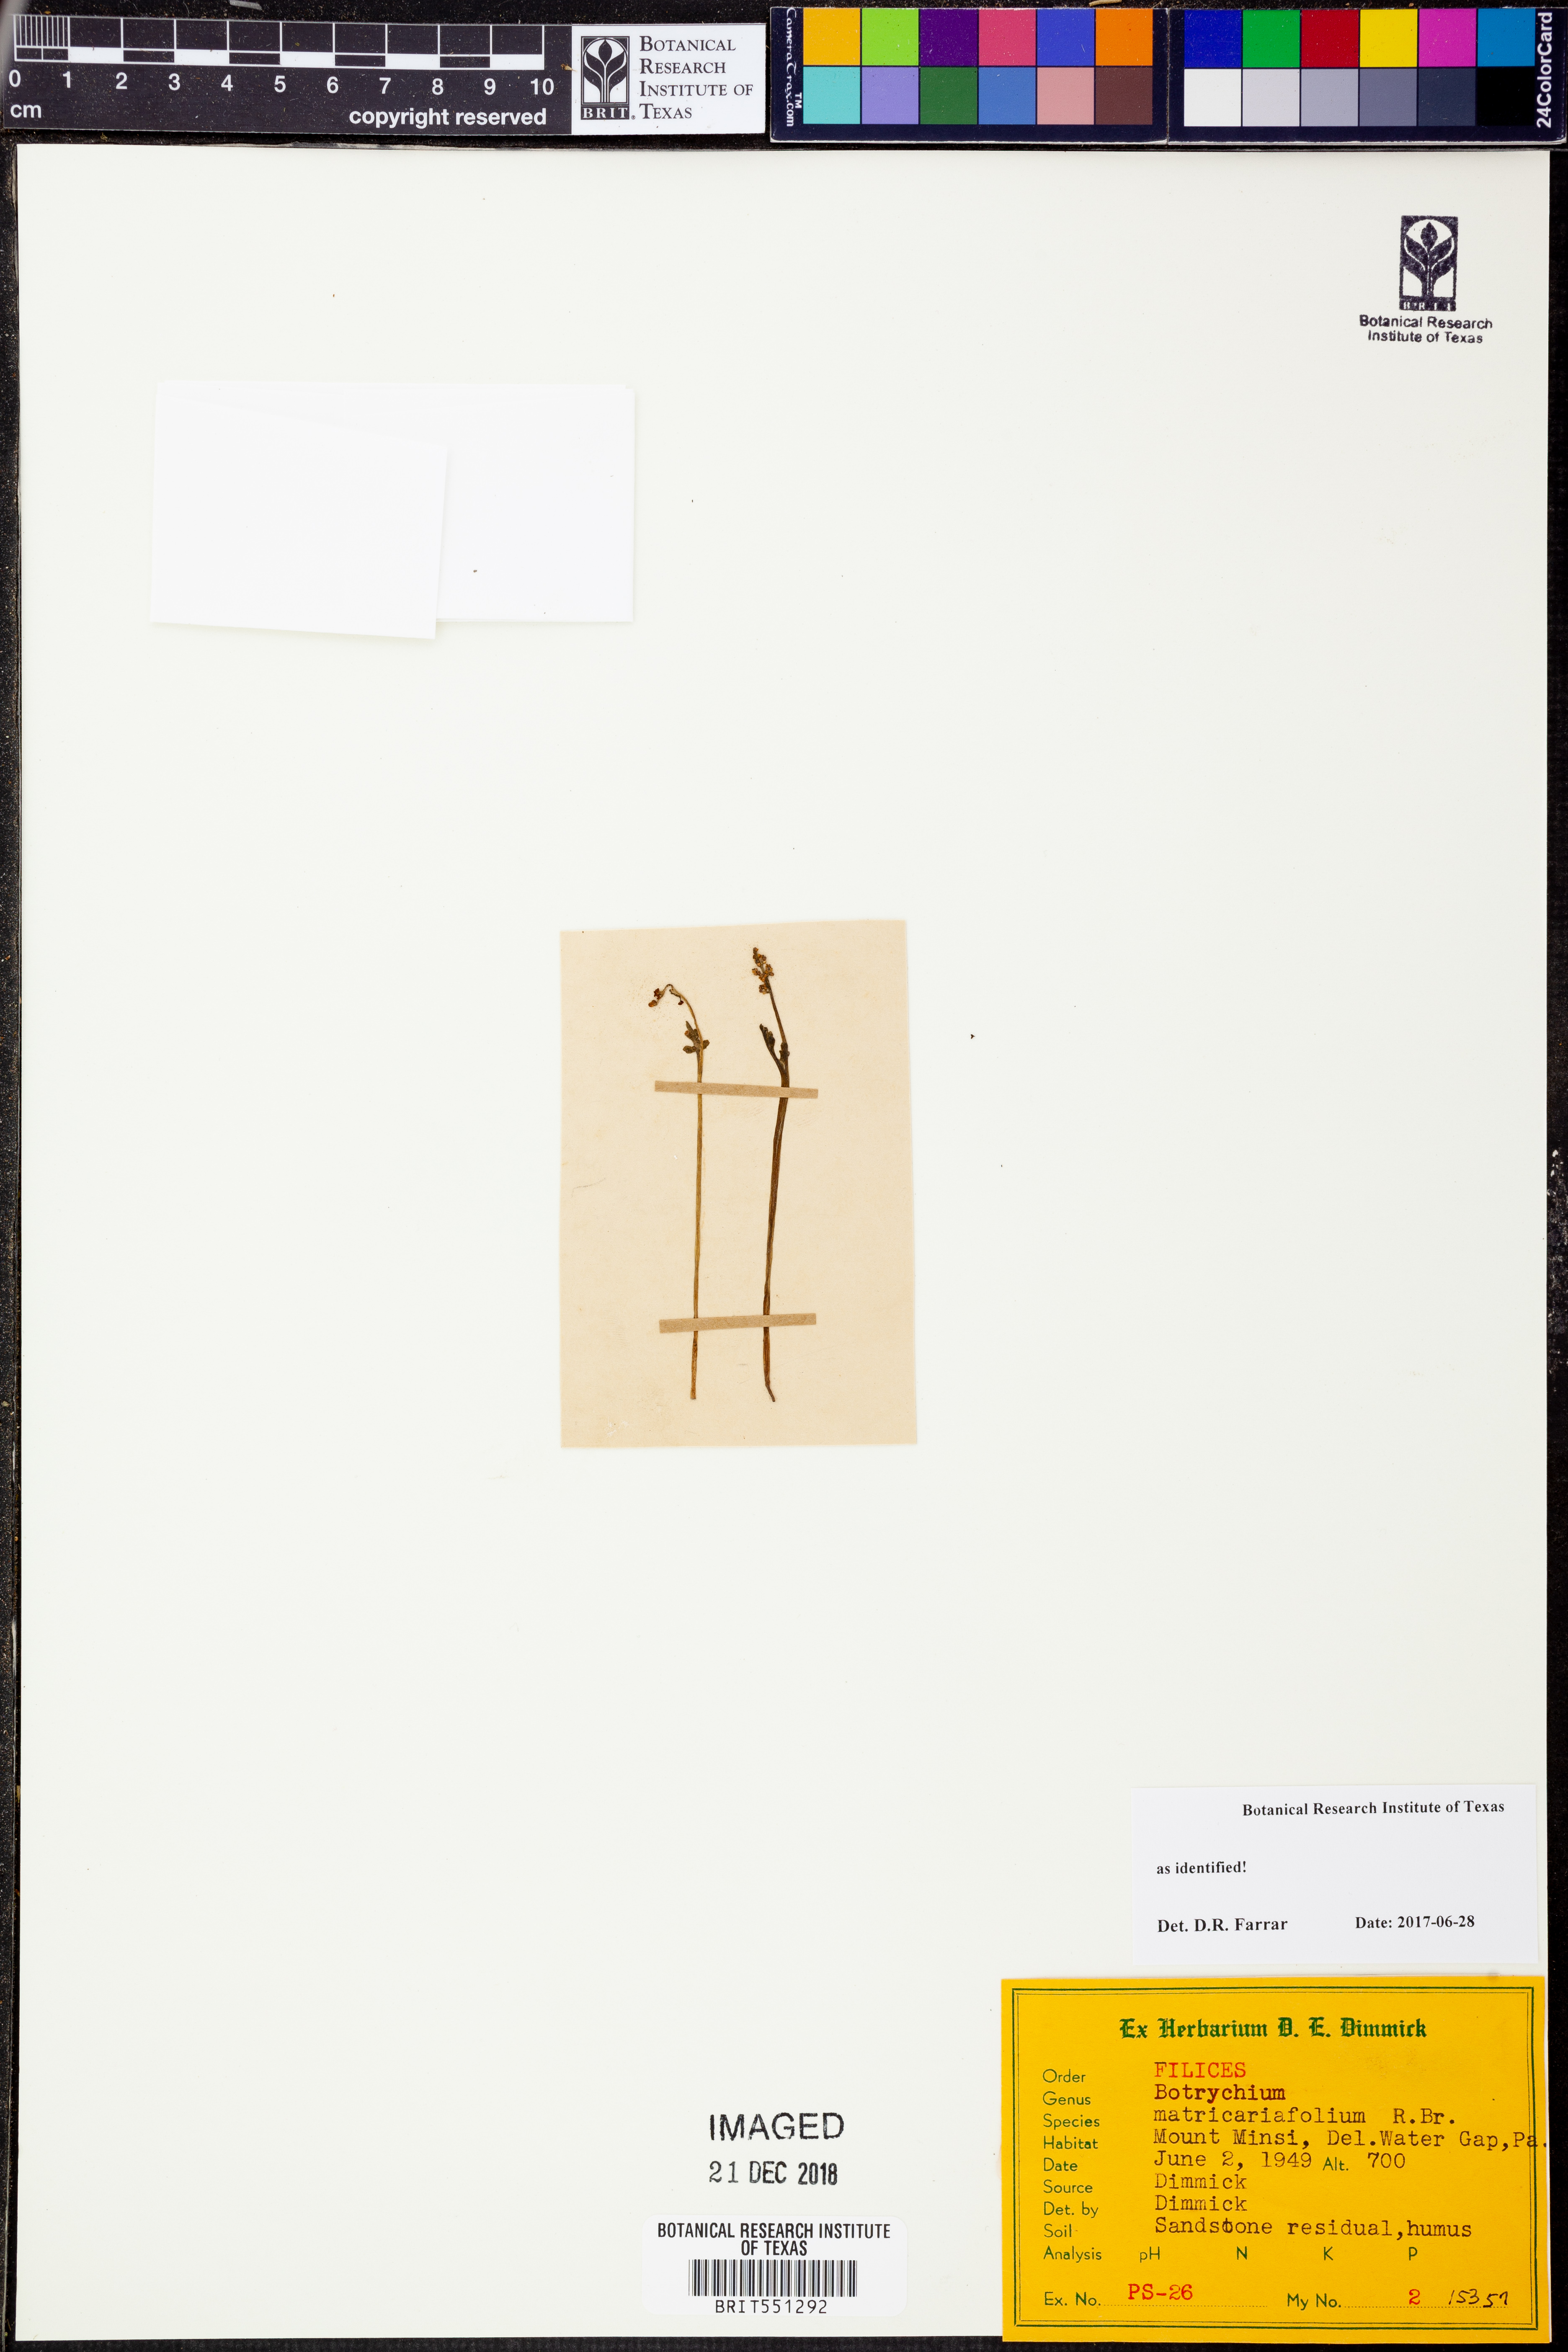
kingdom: Plantae
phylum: Tracheophyta
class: Polypodiopsida
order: Ophioglossales
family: Ophioglossaceae
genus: Botrychium
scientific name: Botrychium matricariifolium
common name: Branched moonwort
